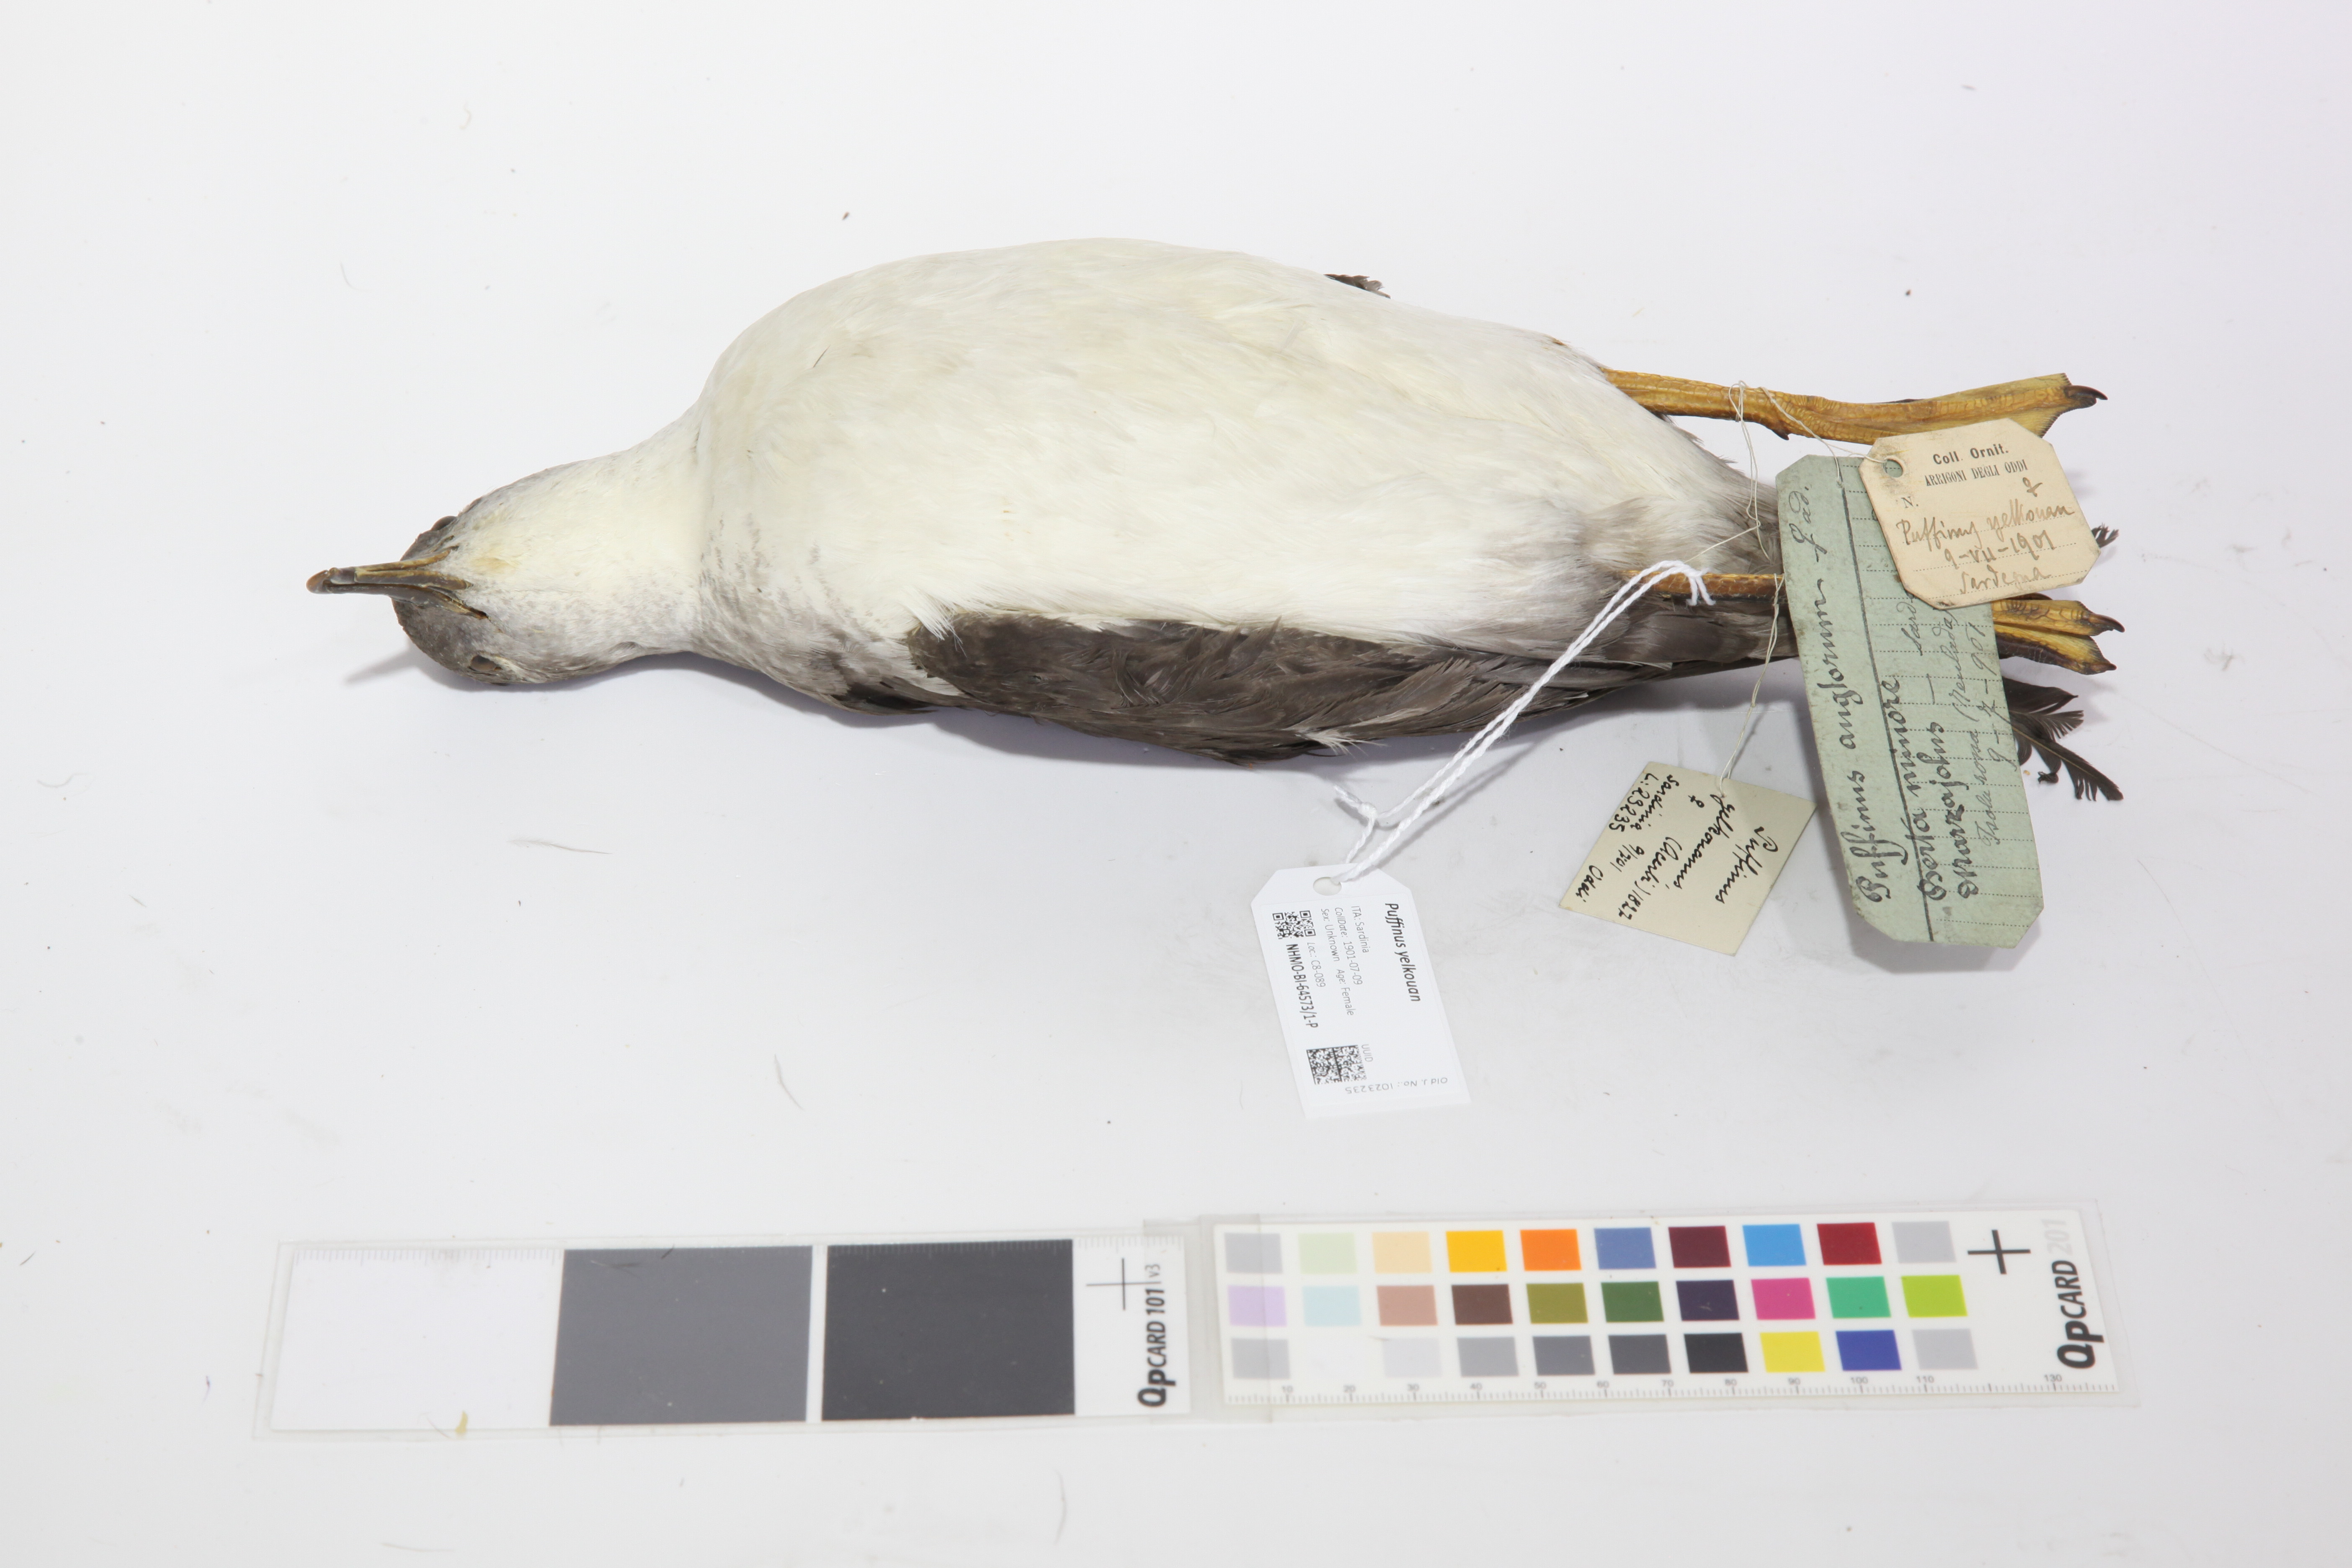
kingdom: Animalia
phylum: Chordata
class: Aves
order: Procellariiformes
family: Procellariidae
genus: Puffinus
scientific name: Puffinus yelkouan
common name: Yelkouan shearwater
